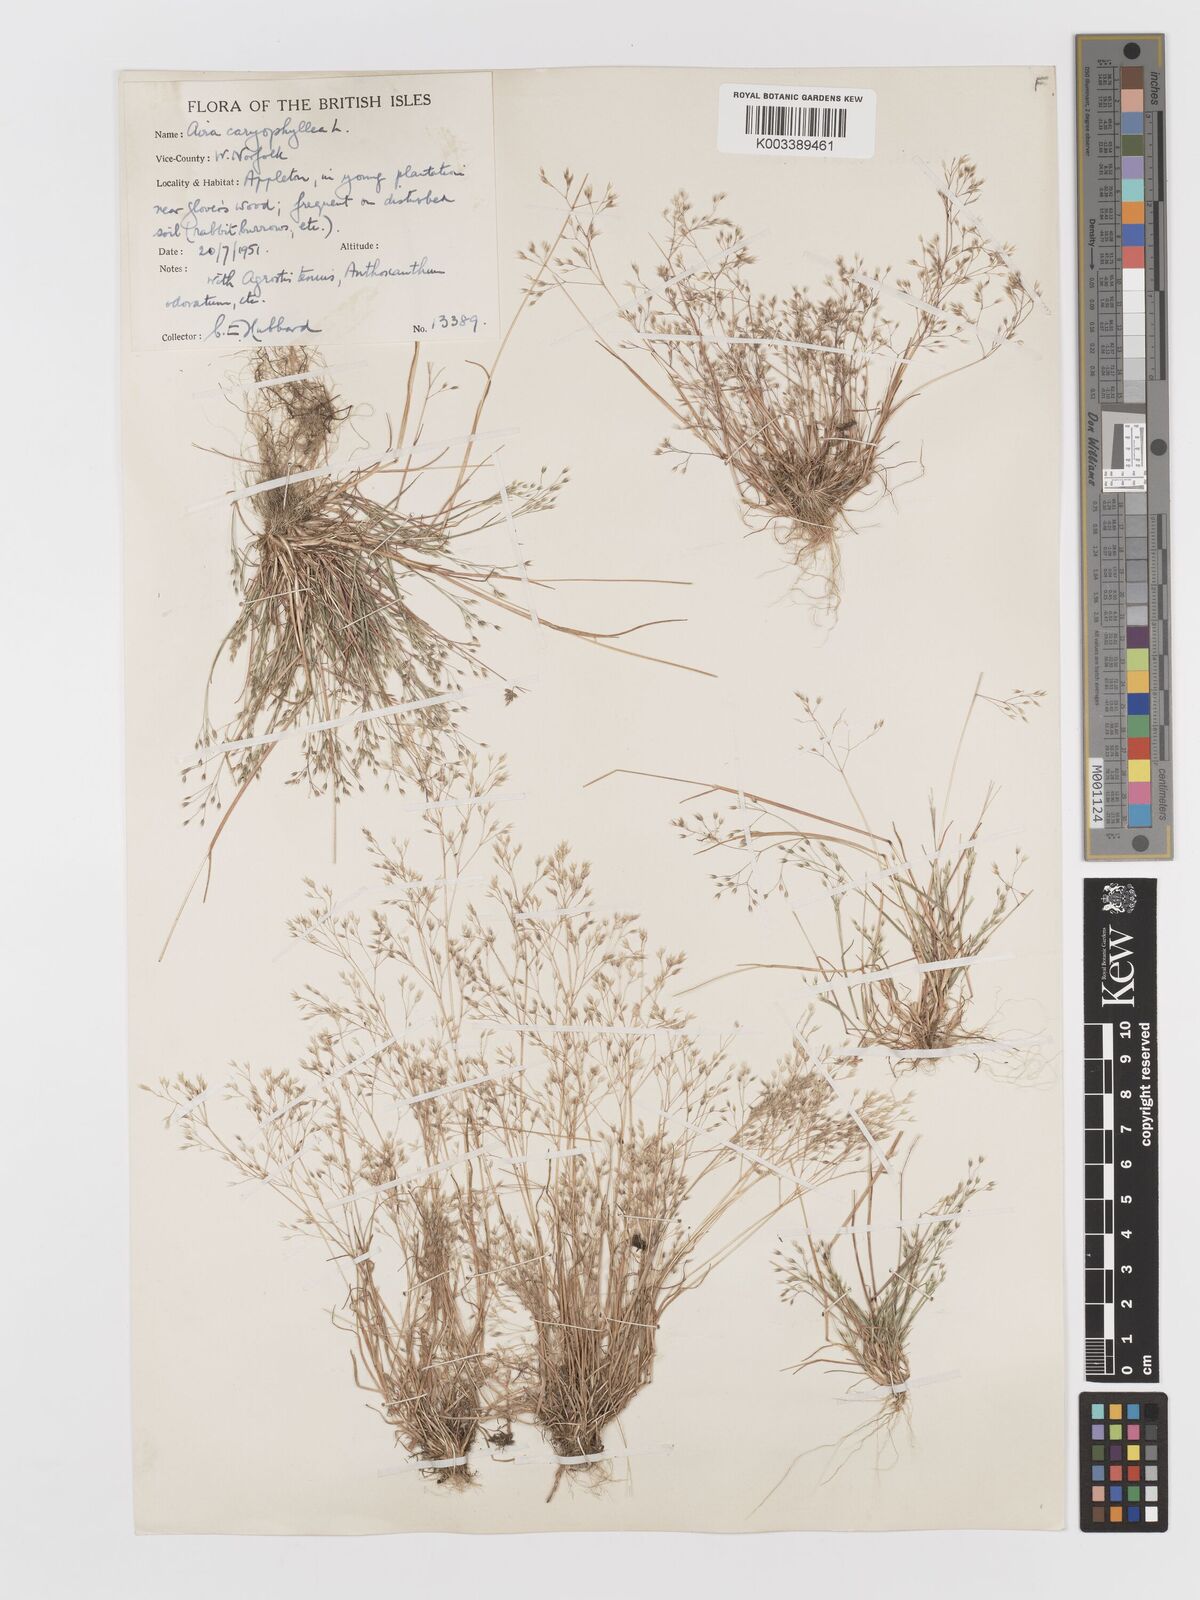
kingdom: Plantae
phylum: Tracheophyta
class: Liliopsida
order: Poales
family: Poaceae
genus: Aira
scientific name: Aira caryophyllea
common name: Silver hairgrass
